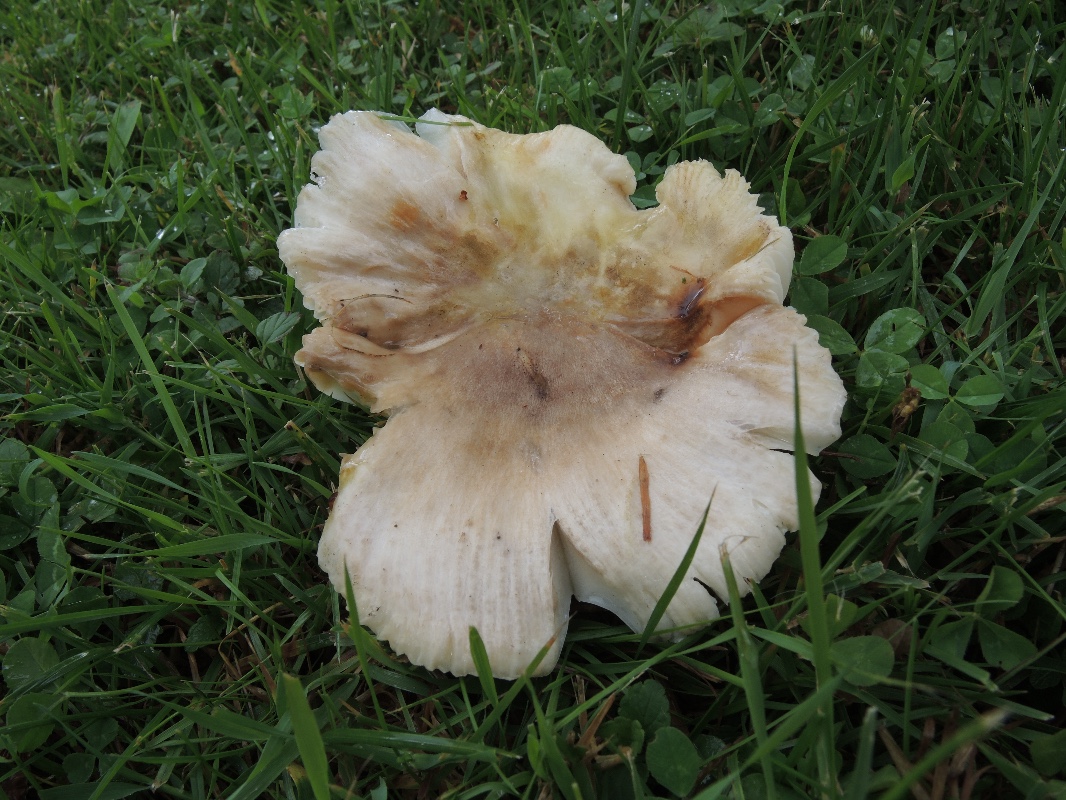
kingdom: Fungi
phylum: Basidiomycota
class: Agaricomycetes
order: Russulales
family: Russulaceae
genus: Russula
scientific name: Russula violeipes
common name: ferskengul skørhat
